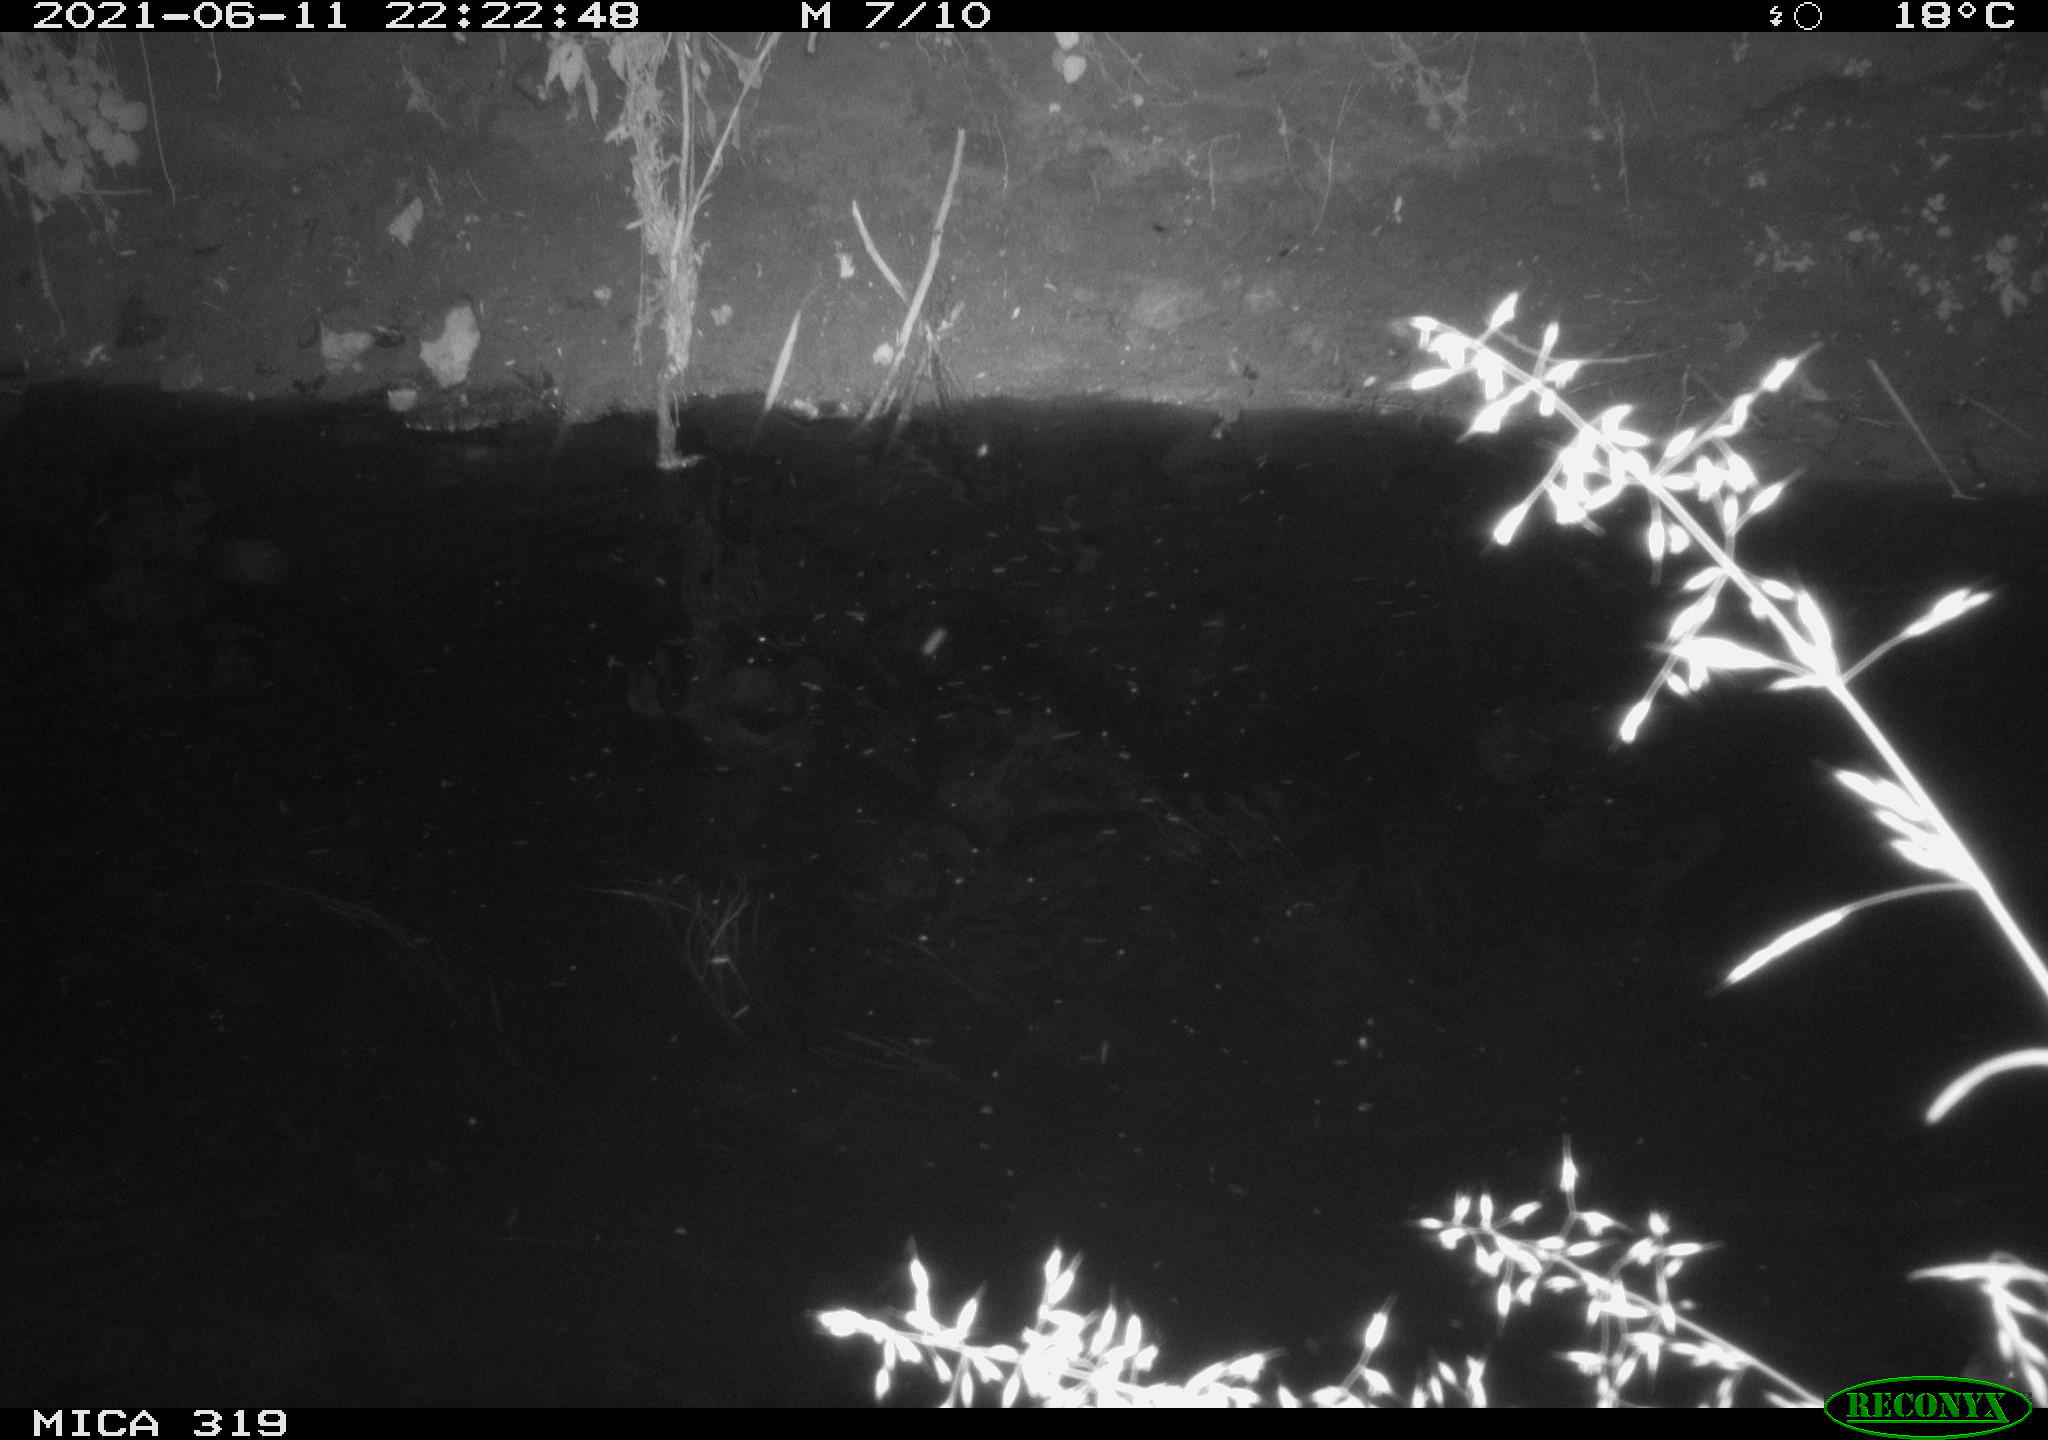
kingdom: Animalia
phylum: Chordata
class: Aves
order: Anseriformes
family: Anatidae
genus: Anas
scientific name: Anas platyrhynchos
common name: Mallard
